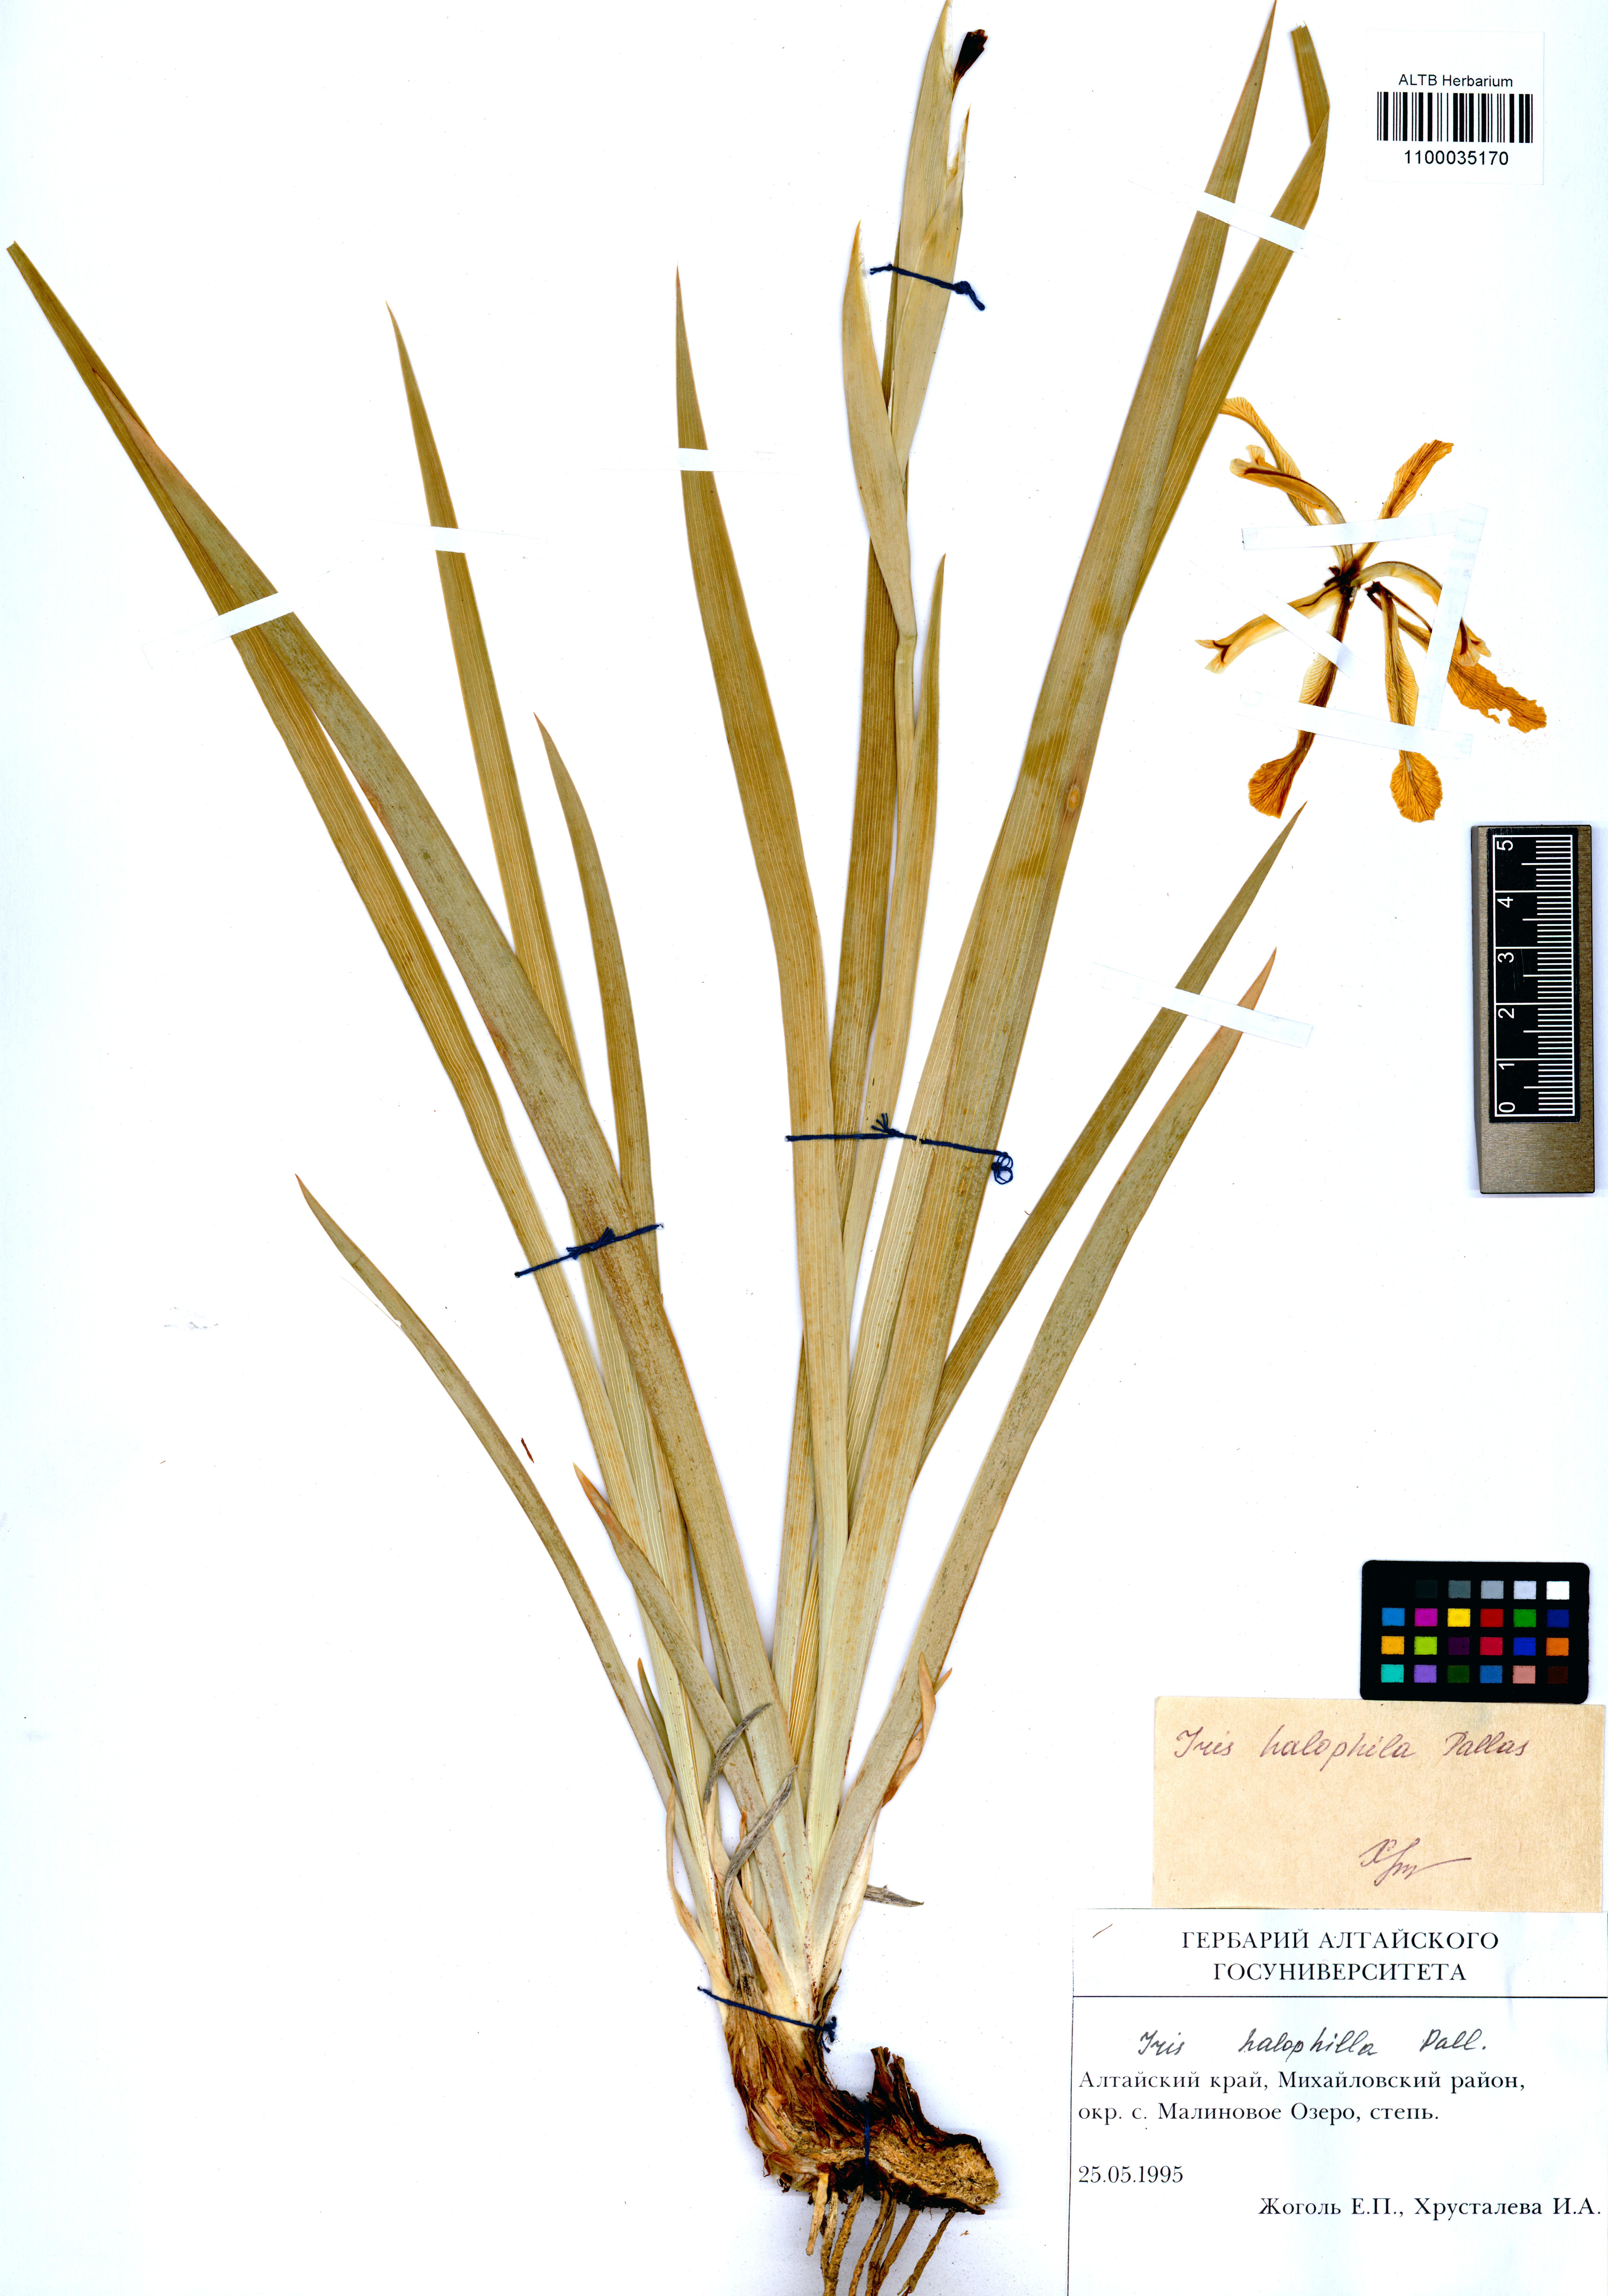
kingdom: Plantae
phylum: Tracheophyta
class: Liliopsida
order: Asparagales
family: Iridaceae
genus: Iris
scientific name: Iris halophila
